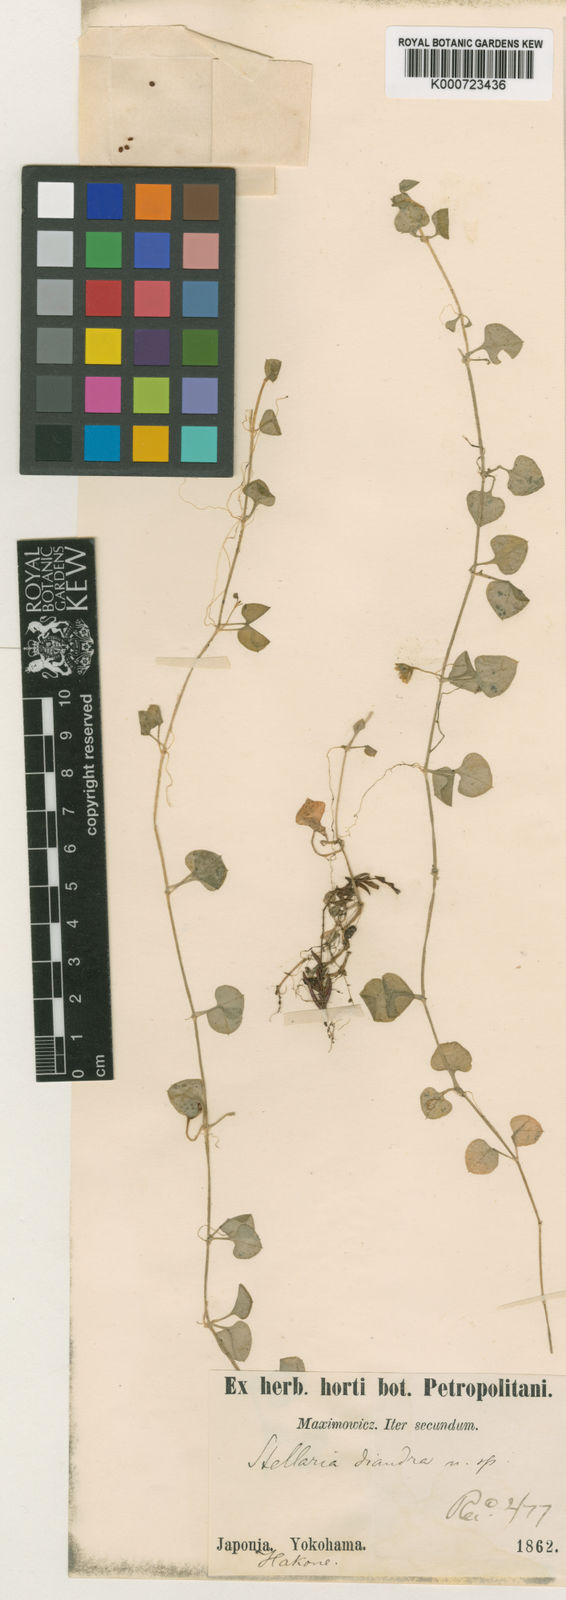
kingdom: Plantae
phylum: Tracheophyta
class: Magnoliopsida
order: Caryophyllales
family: Caryophyllaceae
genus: Nubelaria
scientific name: Nubelaria diversiflora
